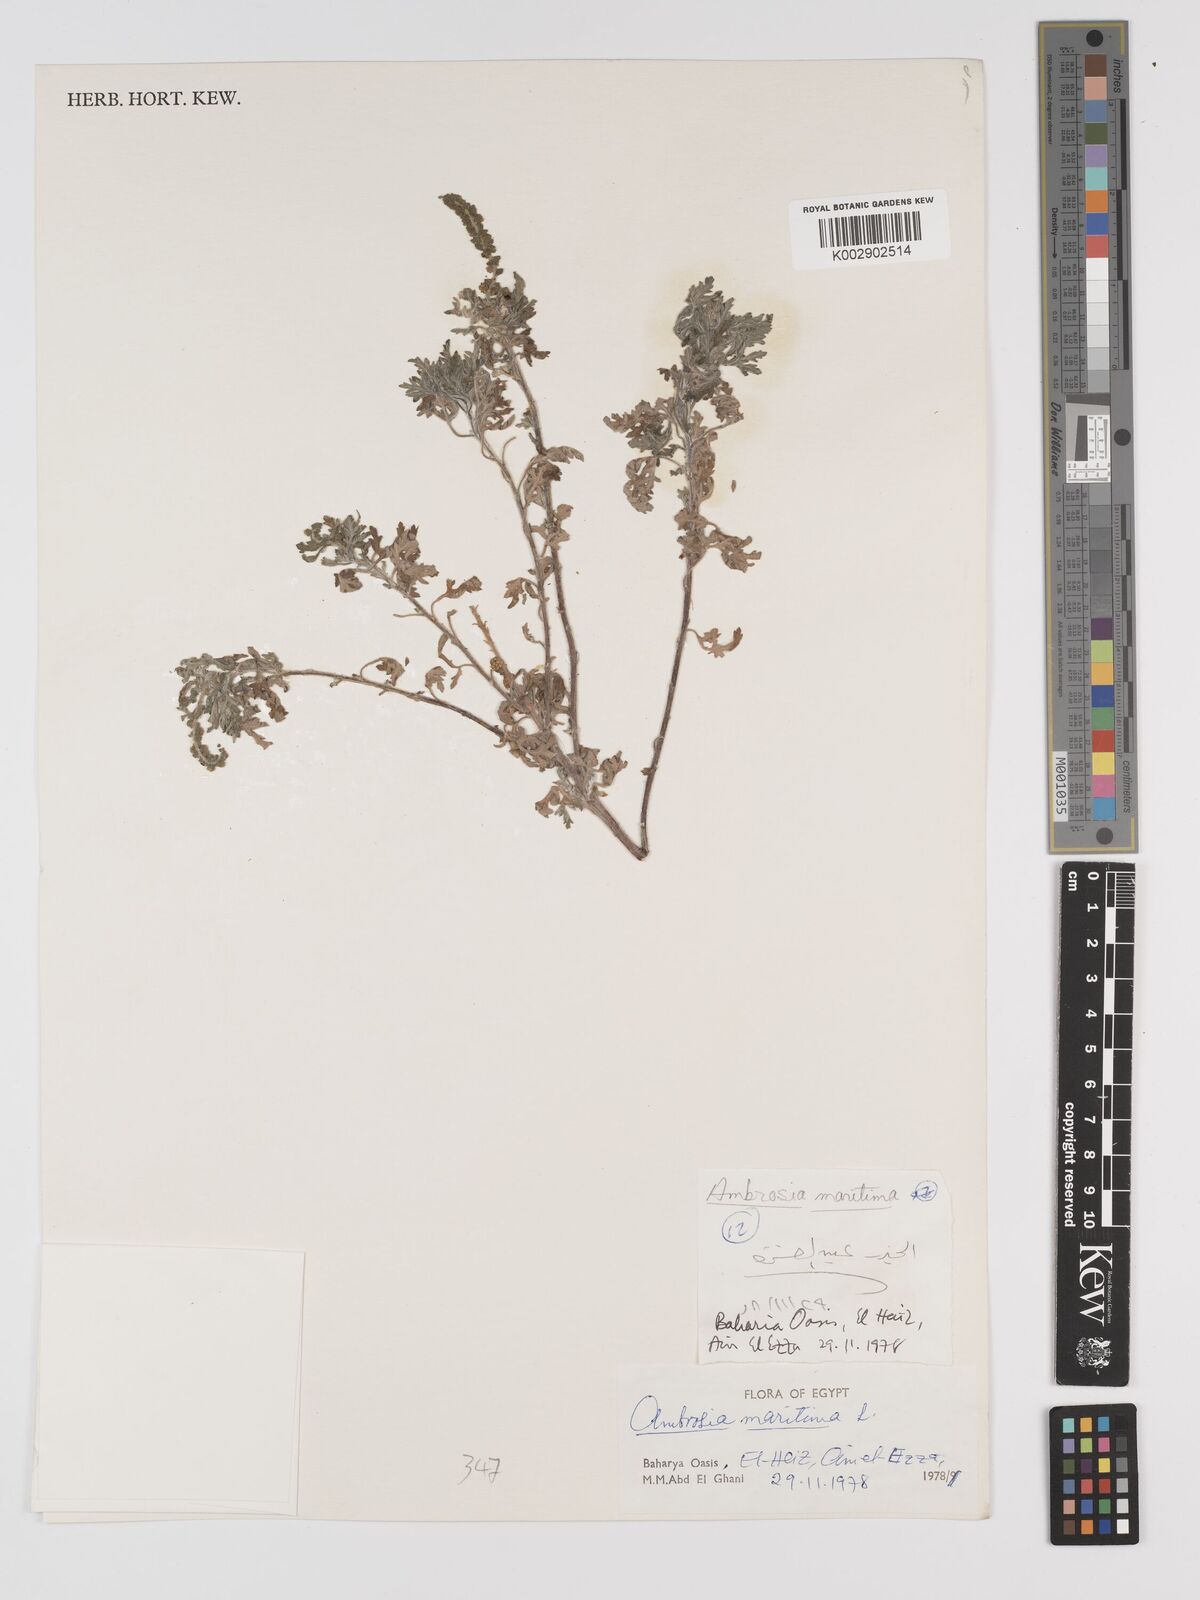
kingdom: Plantae
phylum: Tracheophyta
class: Magnoliopsida
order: Asterales
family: Asteraceae
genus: Ambrosia
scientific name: Ambrosia maritima
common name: Sea ambrosia
